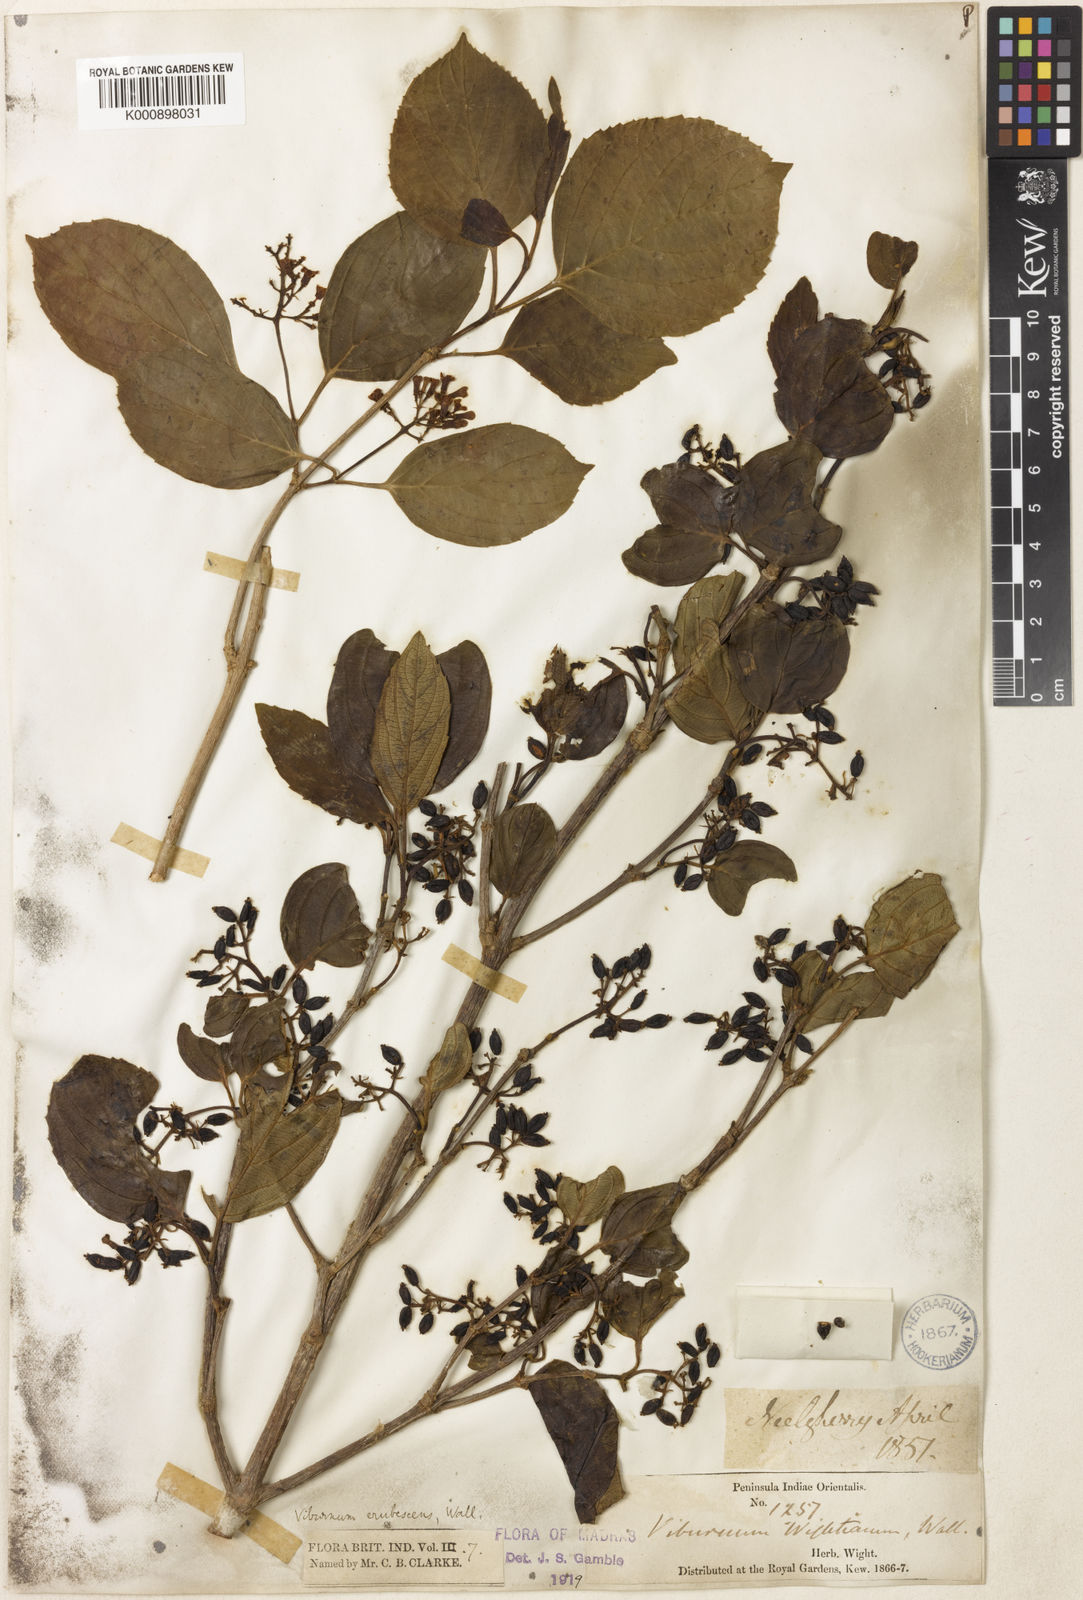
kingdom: Plantae
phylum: Tracheophyta
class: Magnoliopsida
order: Dipsacales
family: Viburnaceae
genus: Viburnum
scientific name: Viburnum
